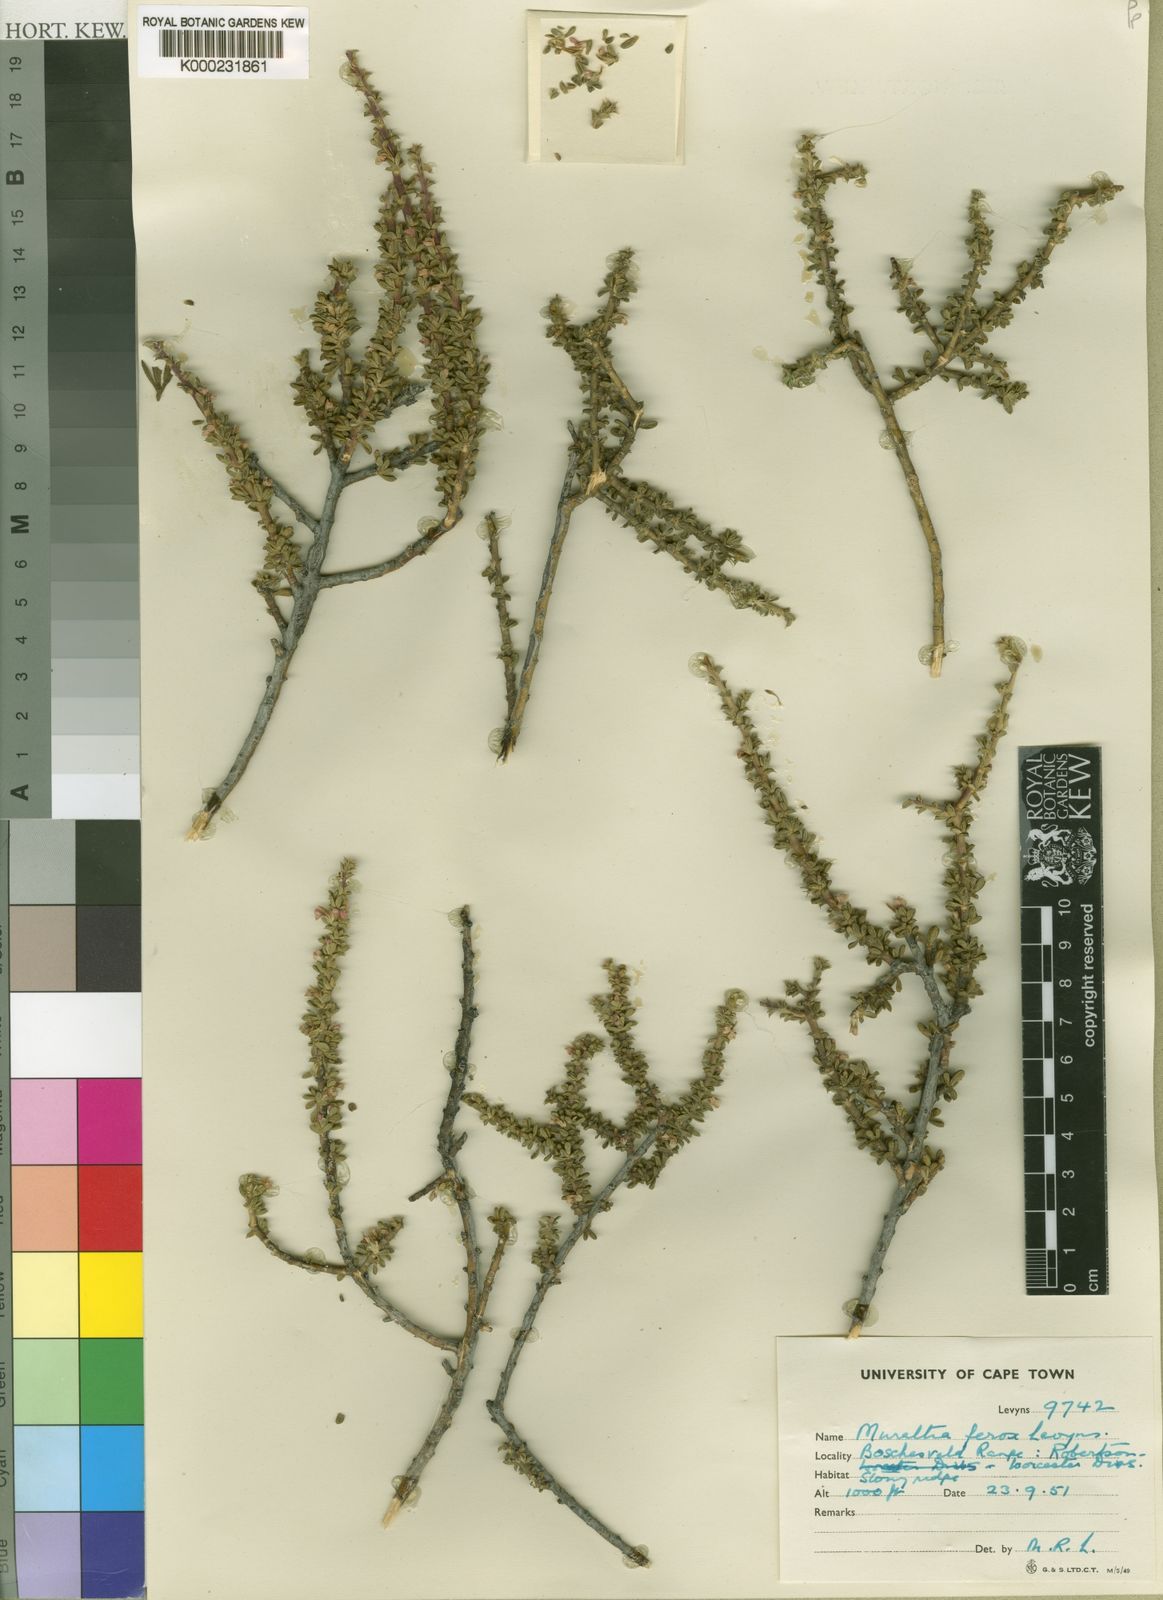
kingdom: Plantae
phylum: Tracheophyta
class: Magnoliopsida
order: Fabales
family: Polygalaceae
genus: Muraltia
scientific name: Muraltia ferox
